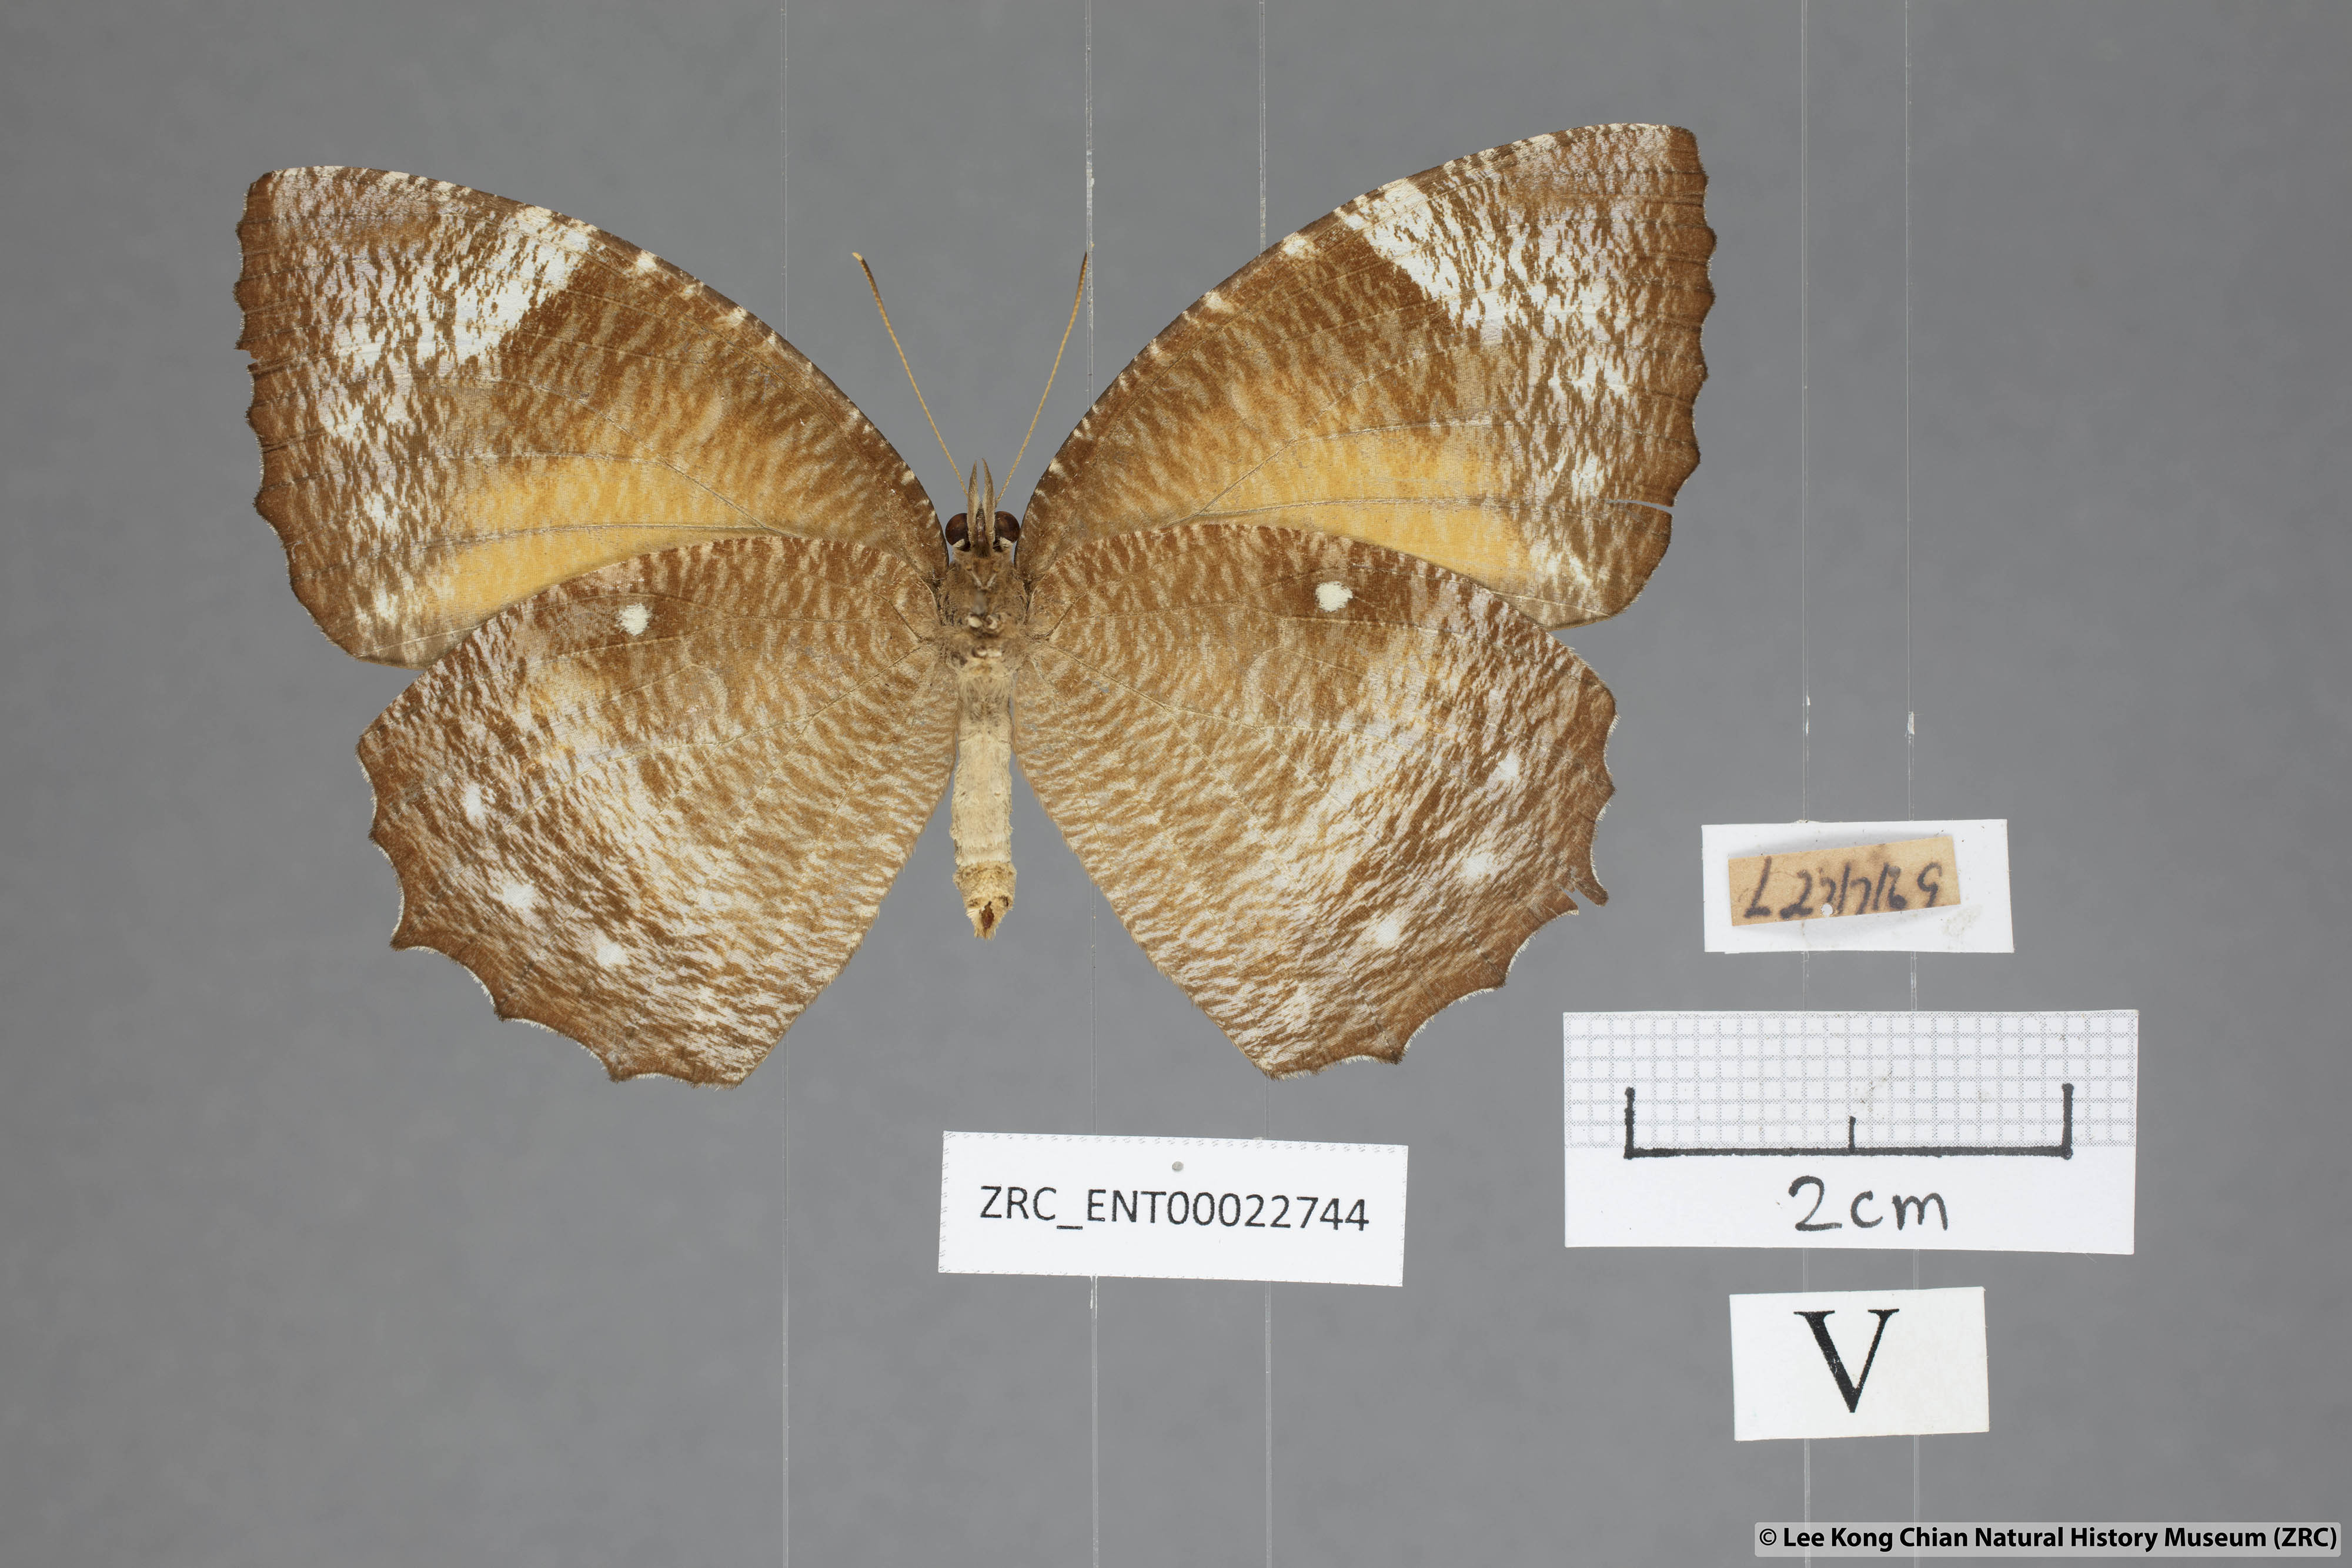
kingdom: Animalia
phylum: Arthropoda
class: Insecta
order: Lepidoptera
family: Nymphalidae
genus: Elymnias
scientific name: Elymnias hypermnestra
